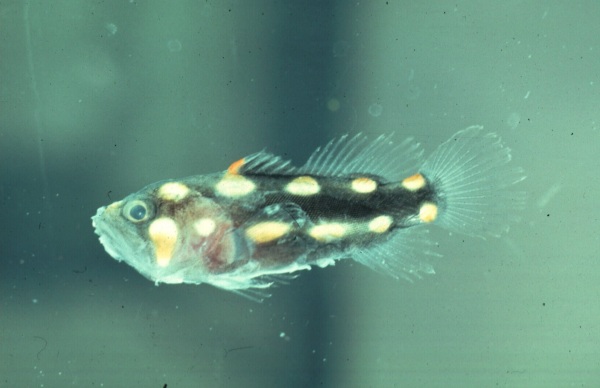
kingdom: Animalia
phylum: Chordata
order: Perciformes
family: Serranidae
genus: Grammistes
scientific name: Grammistes sexlineatus
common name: Sixline soapfish
